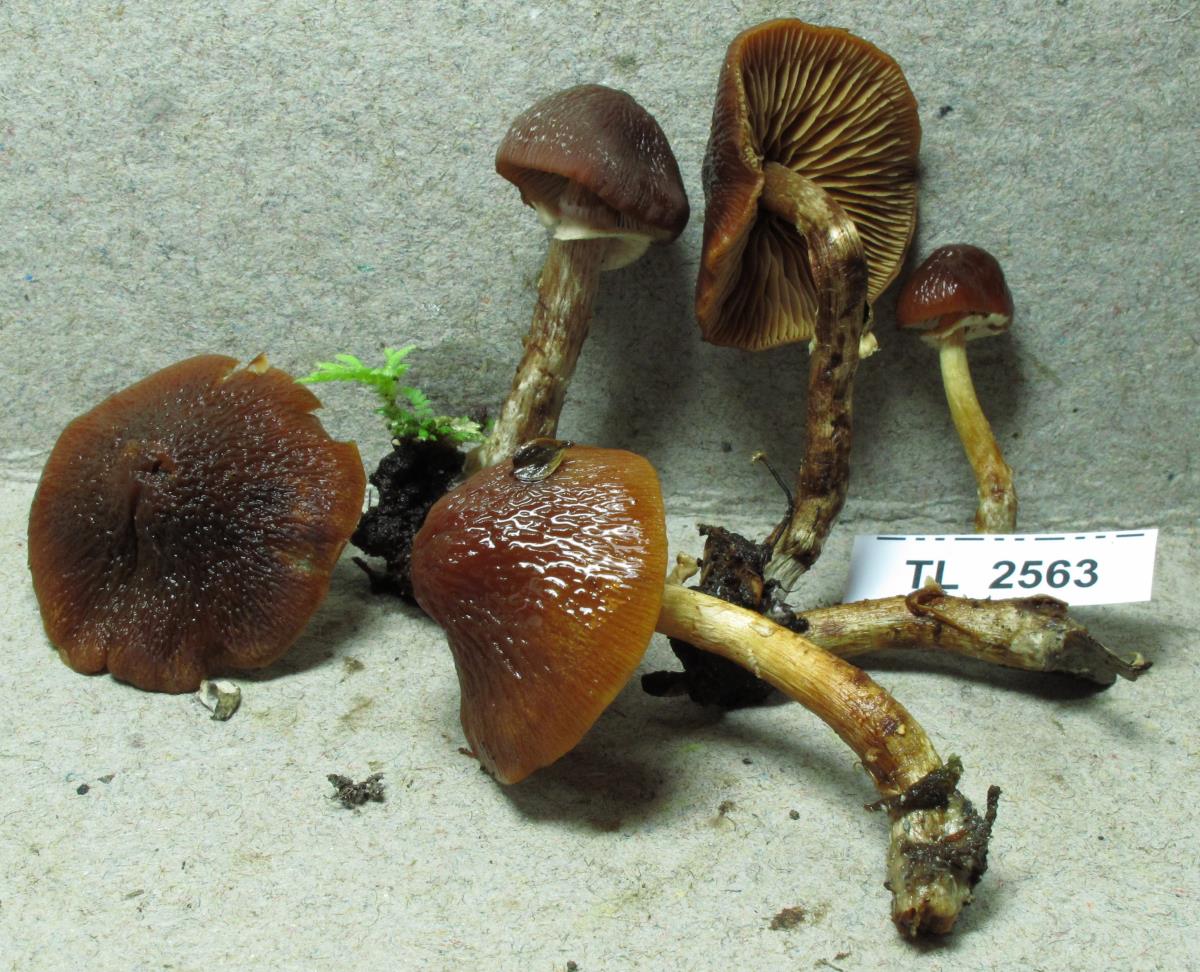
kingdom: Fungi
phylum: Basidiomycota
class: Agaricomycetes
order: Agaricales
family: Bolbitiaceae
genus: Descolea
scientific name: Descolea gunnii
